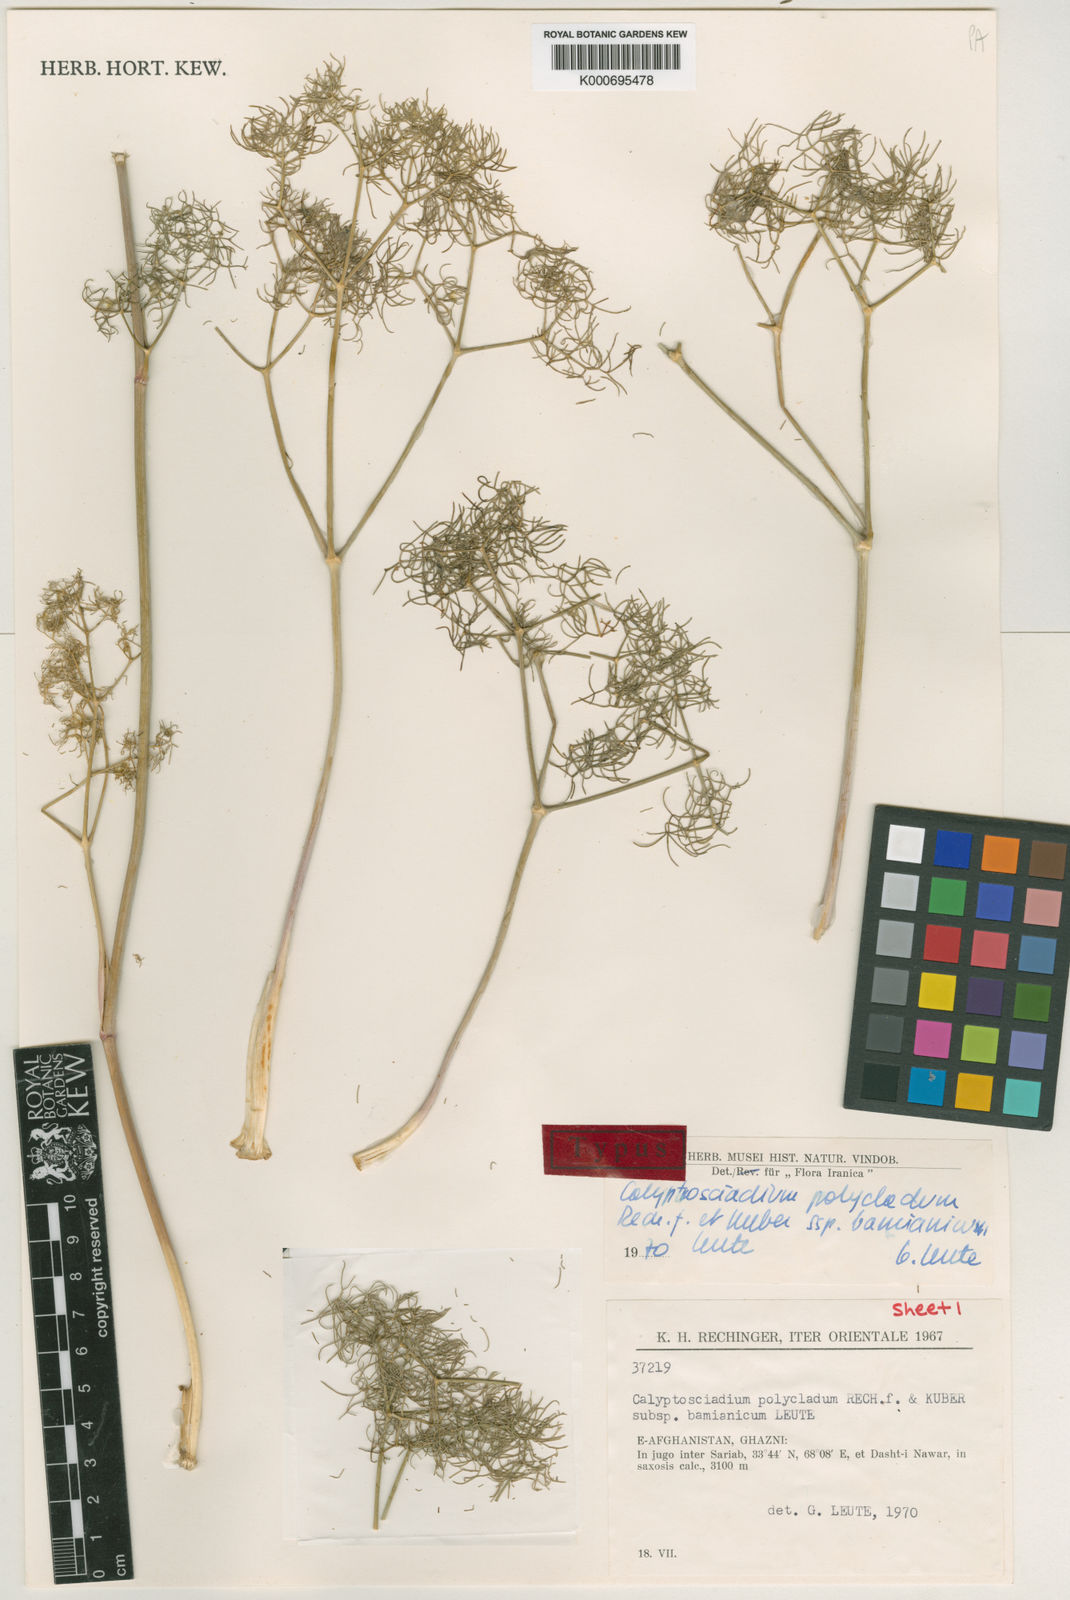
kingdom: Plantae
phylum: Tracheophyta
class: Magnoliopsida
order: Apiales
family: Apiaceae
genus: Calyptrosciadium
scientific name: Calyptrosciadium bungei
